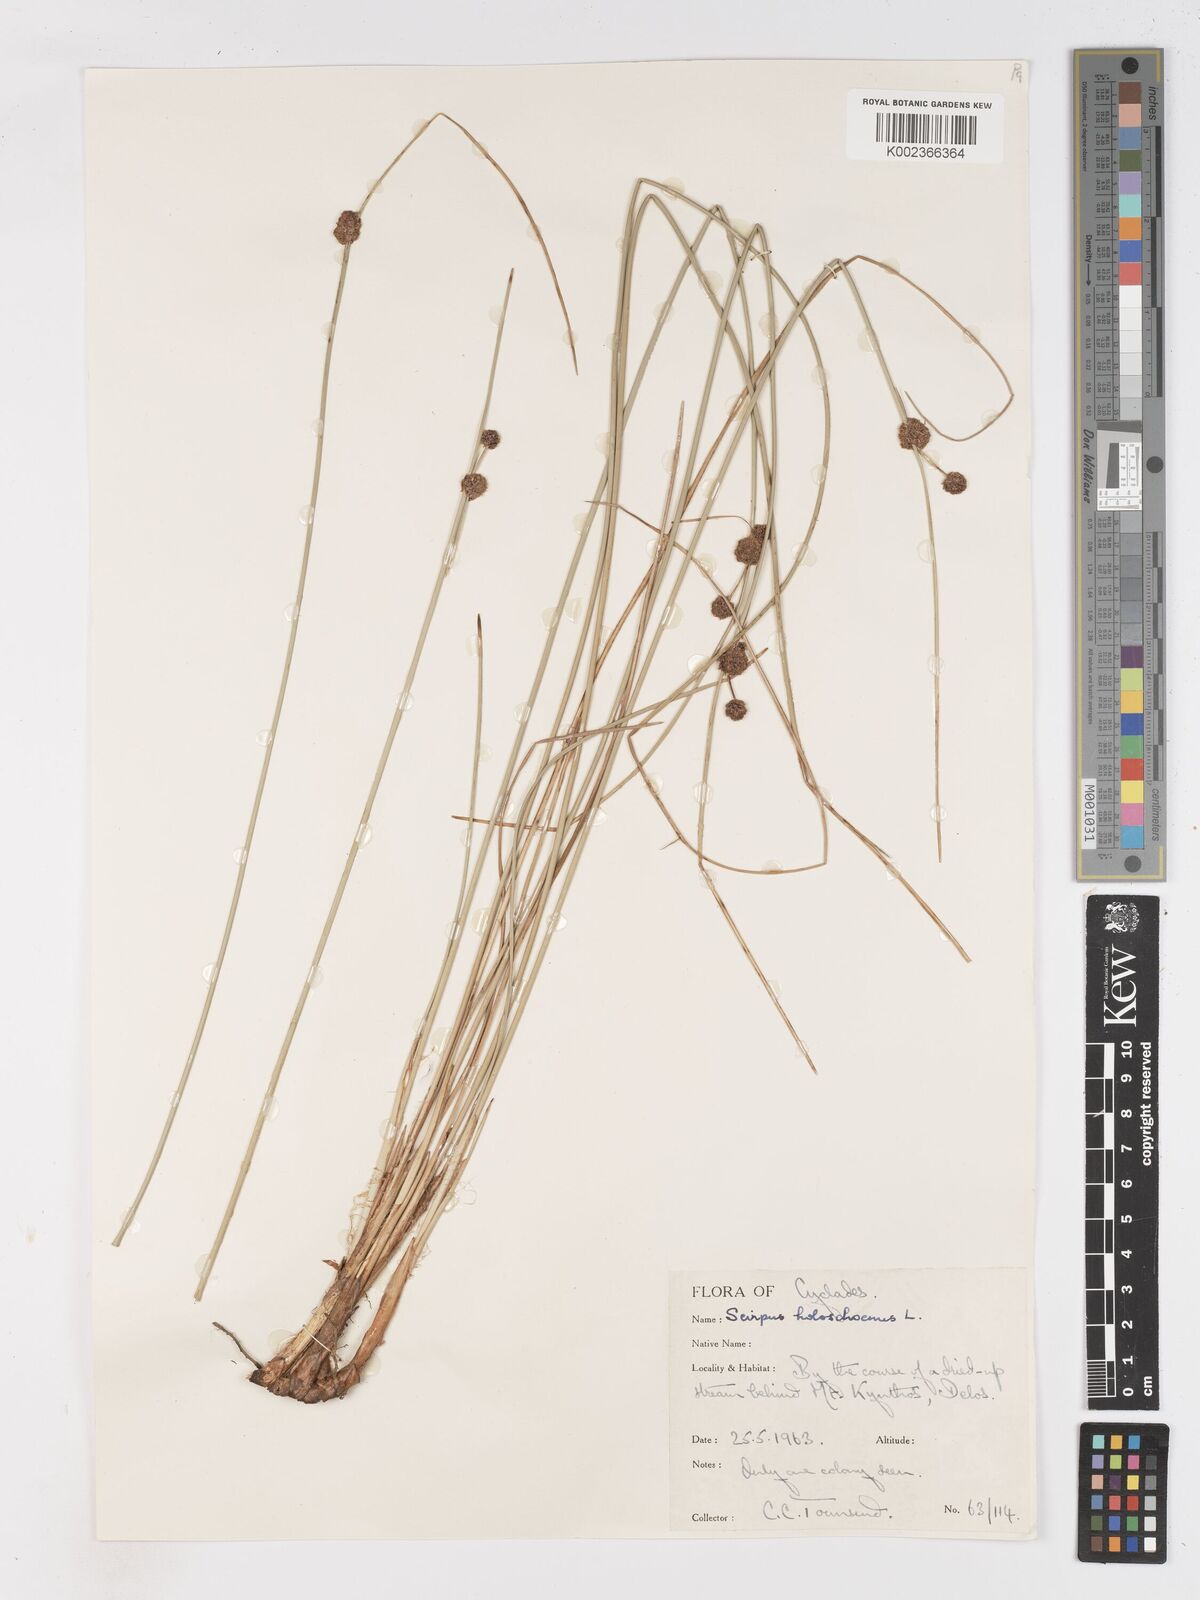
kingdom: Plantae
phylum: Tracheophyta
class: Liliopsida
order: Poales
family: Cyperaceae
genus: Scirpoides
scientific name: Scirpoides holoschoenus
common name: Round-headed club-rush
